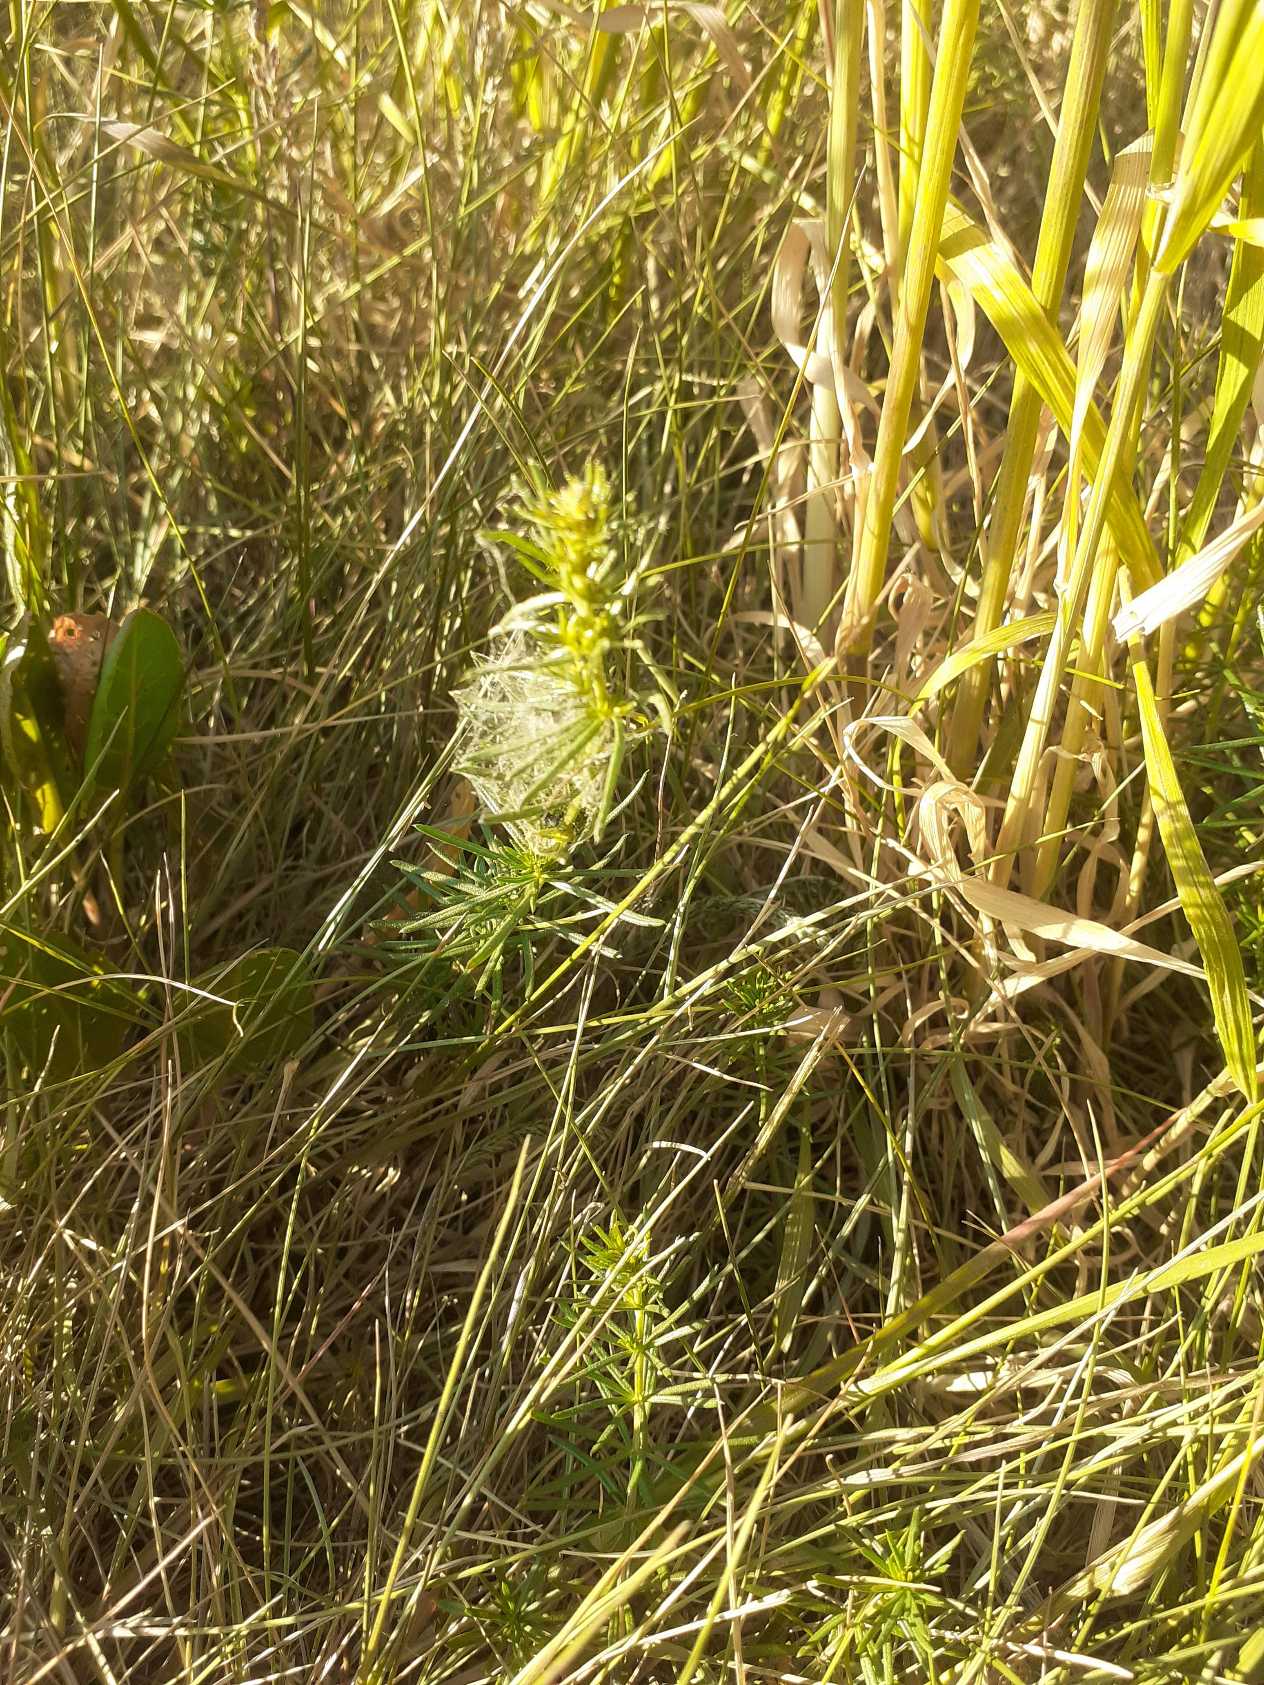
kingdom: Plantae
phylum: Tracheophyta
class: Magnoliopsida
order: Gentianales
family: Rubiaceae
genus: Galium
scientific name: Galium verum
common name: Gul snerre
